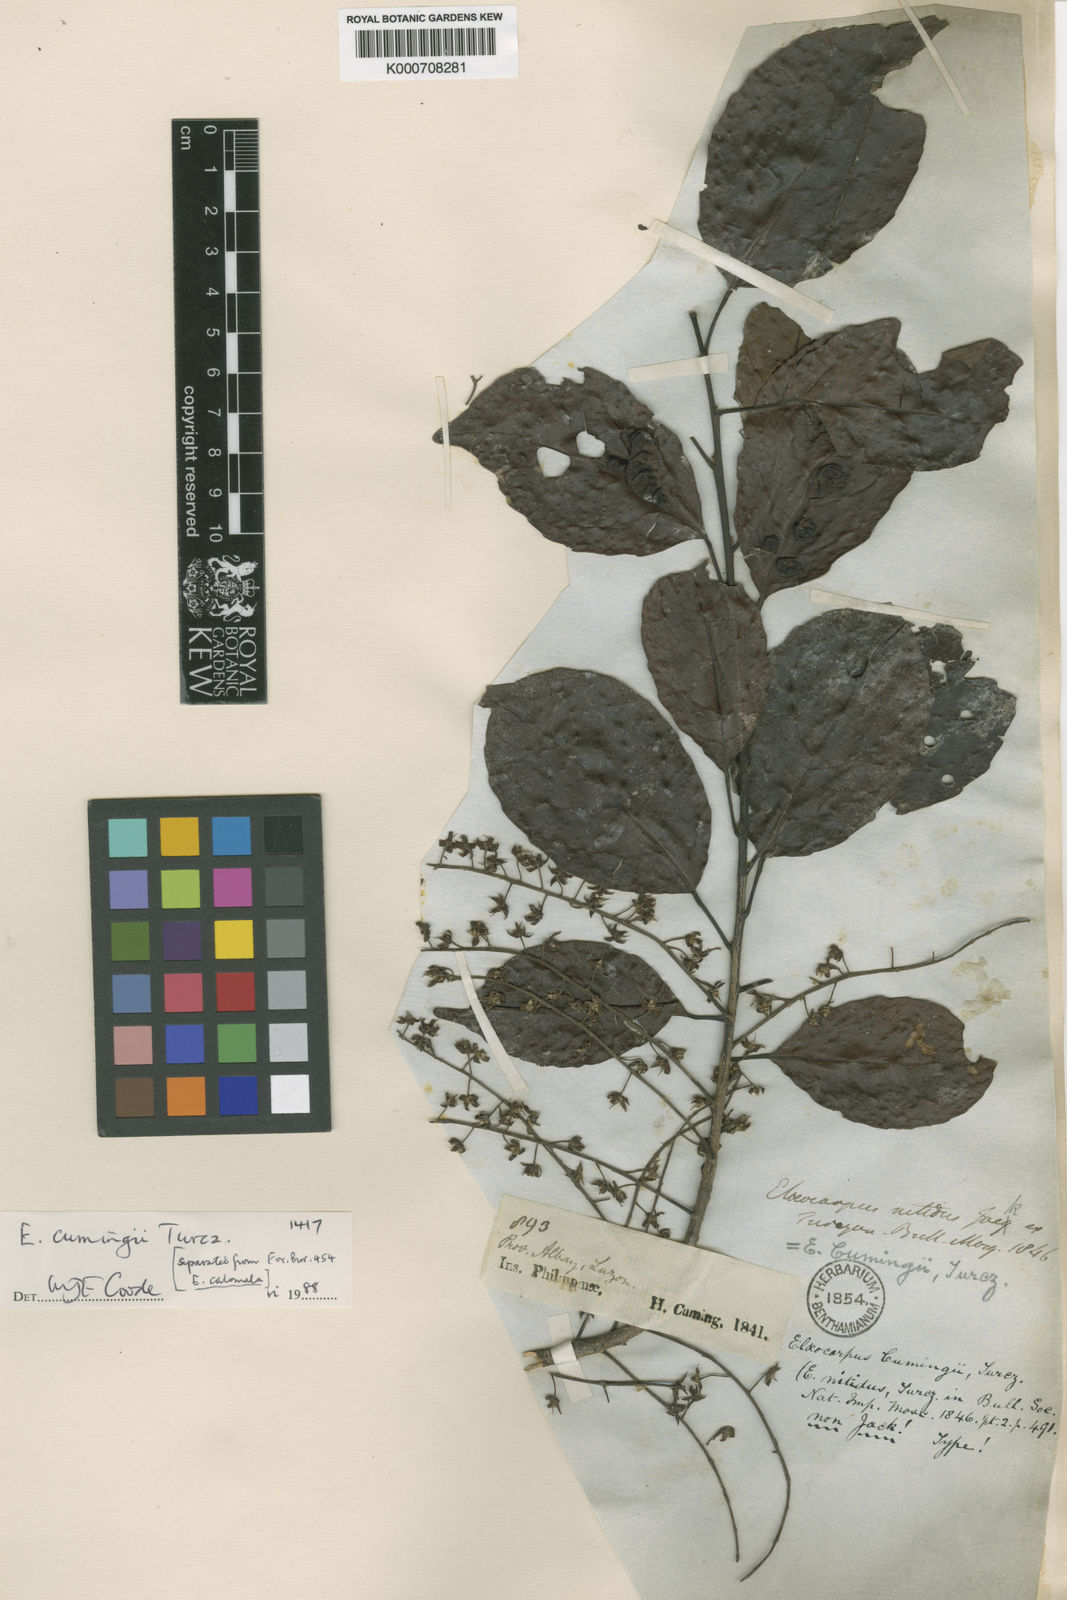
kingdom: Plantae
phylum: Tracheophyta
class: Magnoliopsida
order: Oxalidales
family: Elaeocarpaceae
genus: Elaeocarpus
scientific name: Elaeocarpus cumingii
